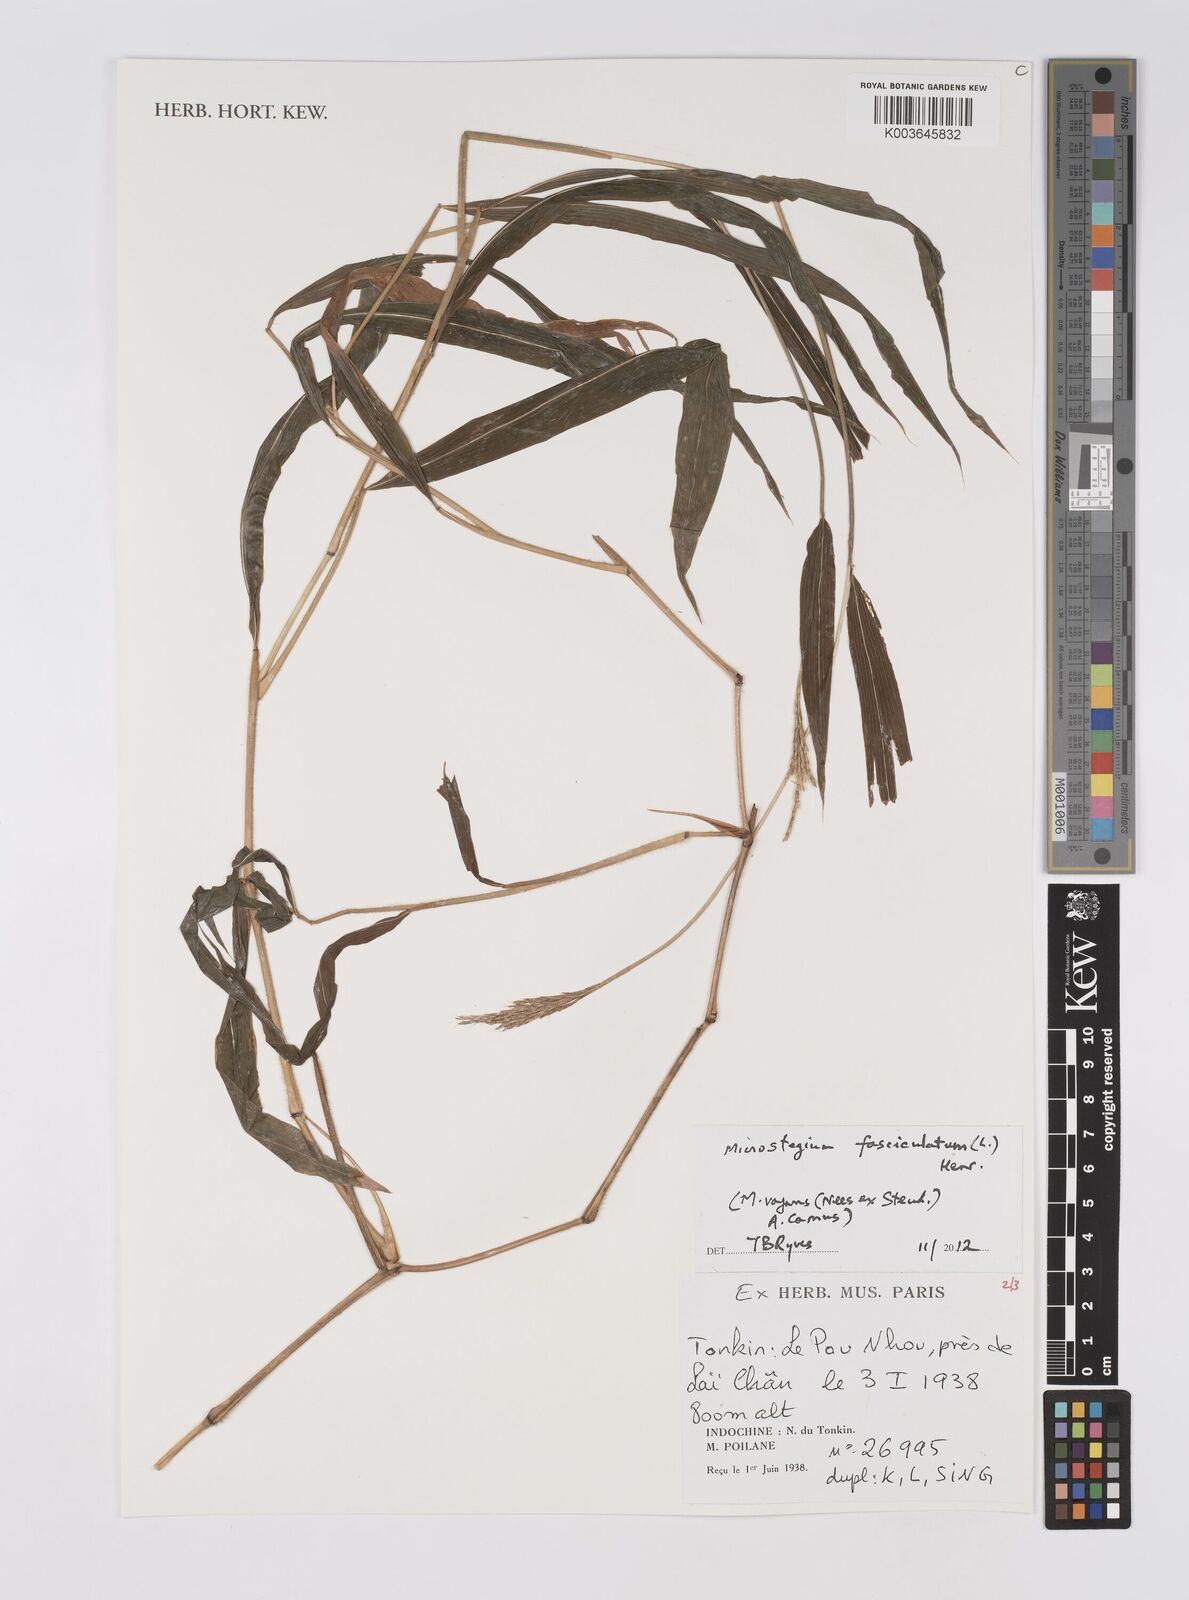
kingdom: Plantae
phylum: Tracheophyta
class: Liliopsida
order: Poales
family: Poaceae
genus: Microstegium
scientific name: Microstegium fasciculatum
